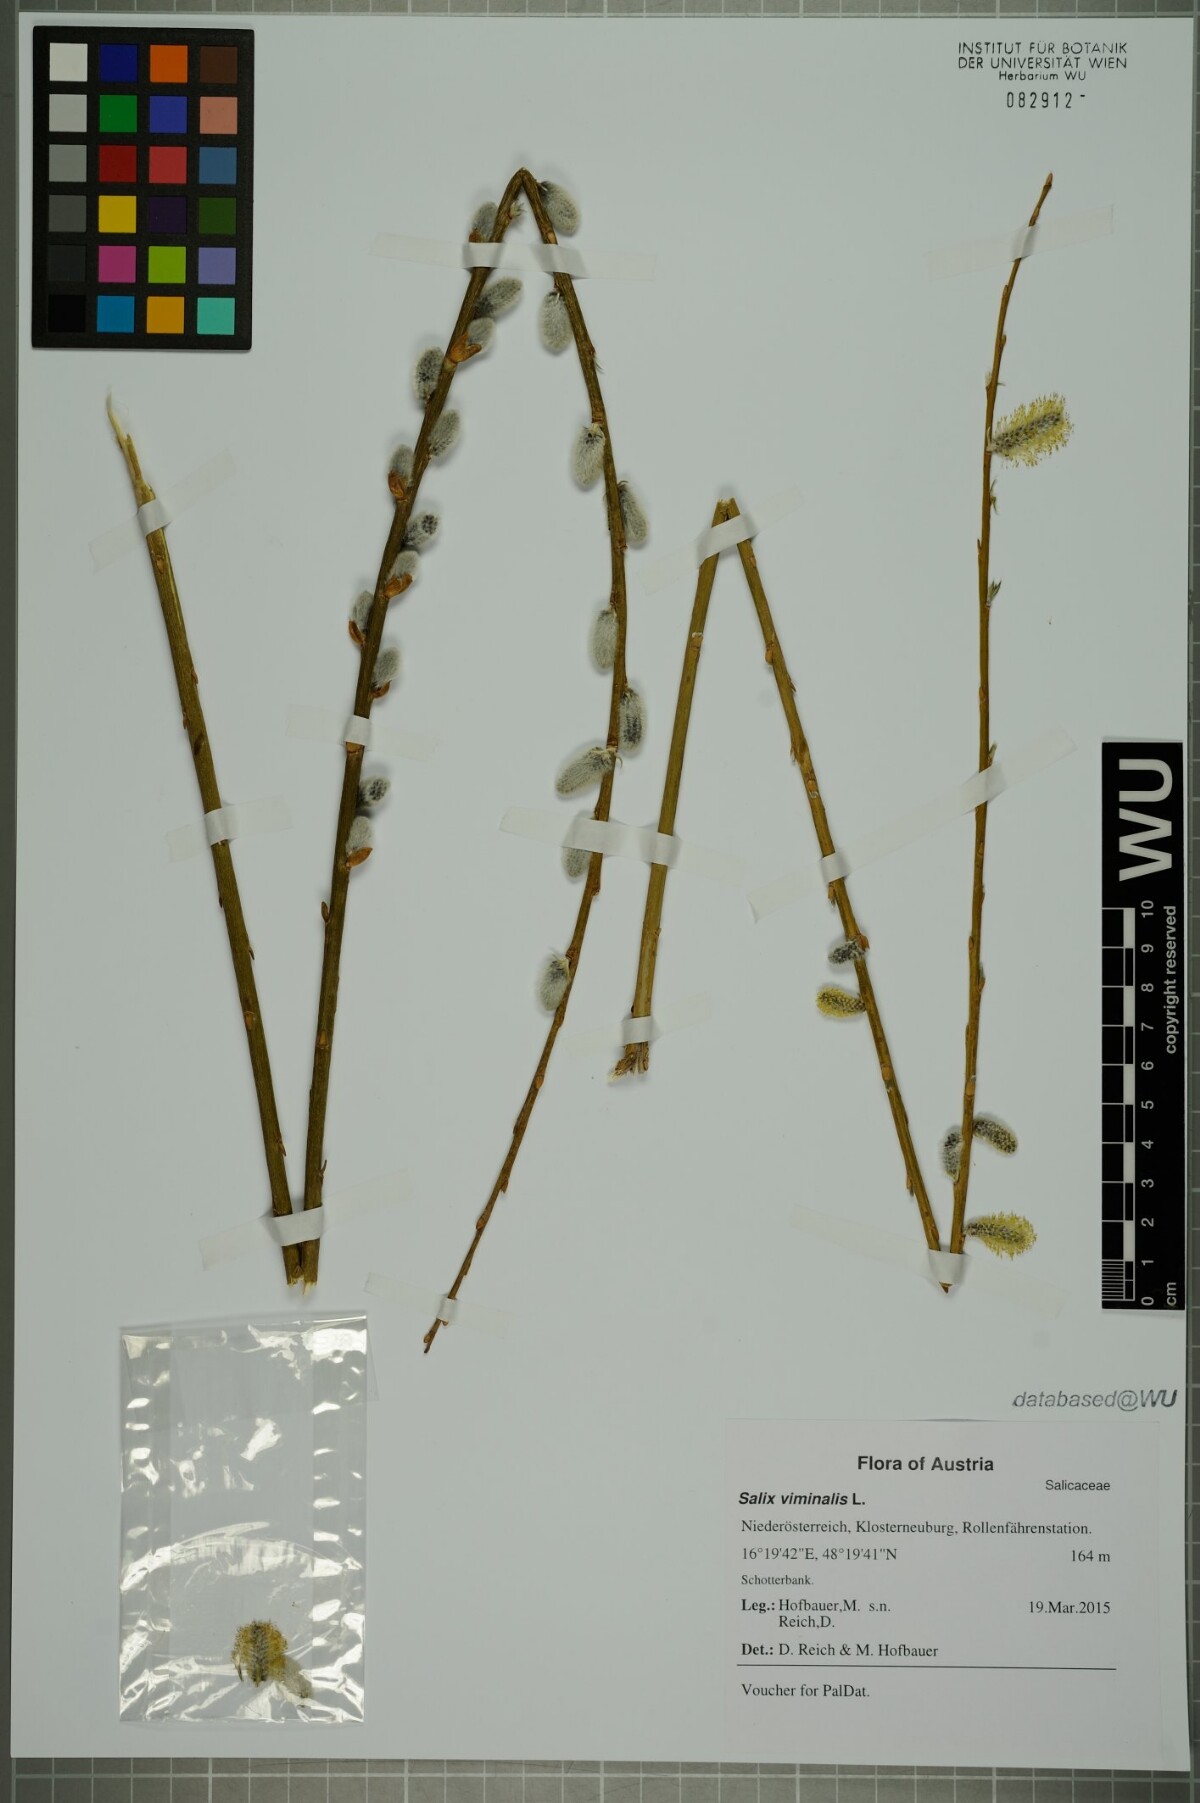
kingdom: Plantae
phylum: Tracheophyta
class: Magnoliopsida
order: Malpighiales
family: Salicaceae
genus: Salix
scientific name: Salix viminalis
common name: Osier
